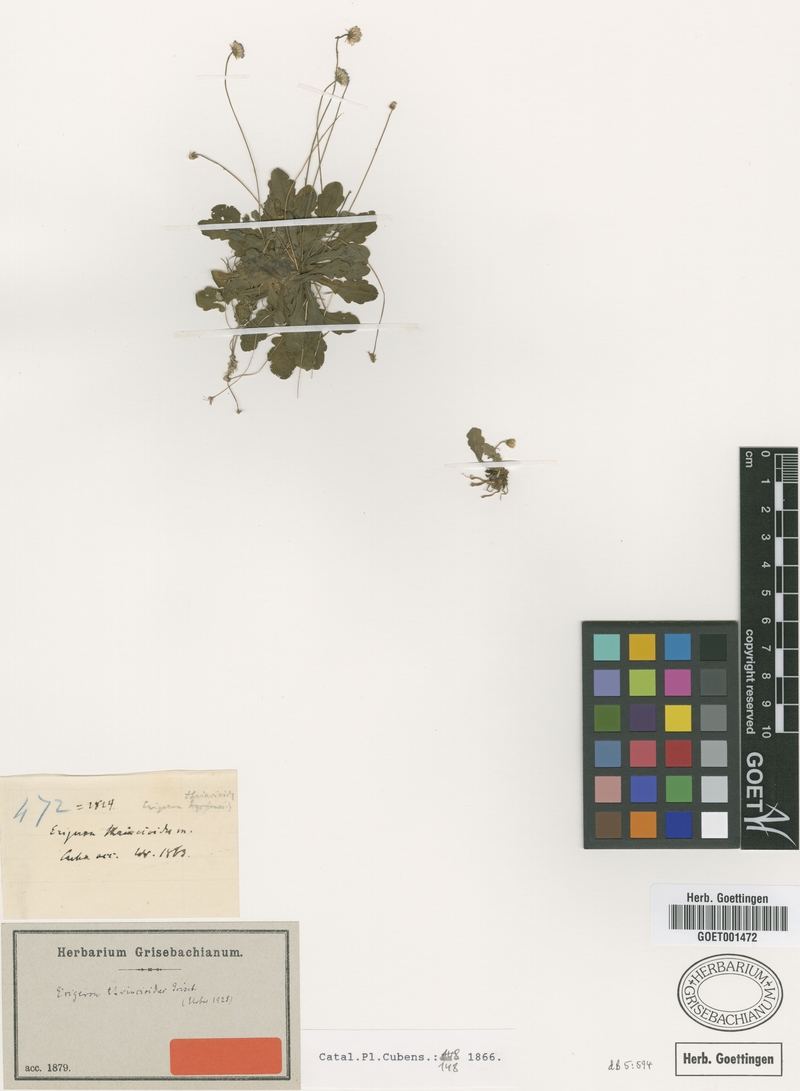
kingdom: Plantae
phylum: Tracheophyta
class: Magnoliopsida
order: Asterales
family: Asteraceae
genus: Erigeron
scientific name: Erigeron thrincioides
